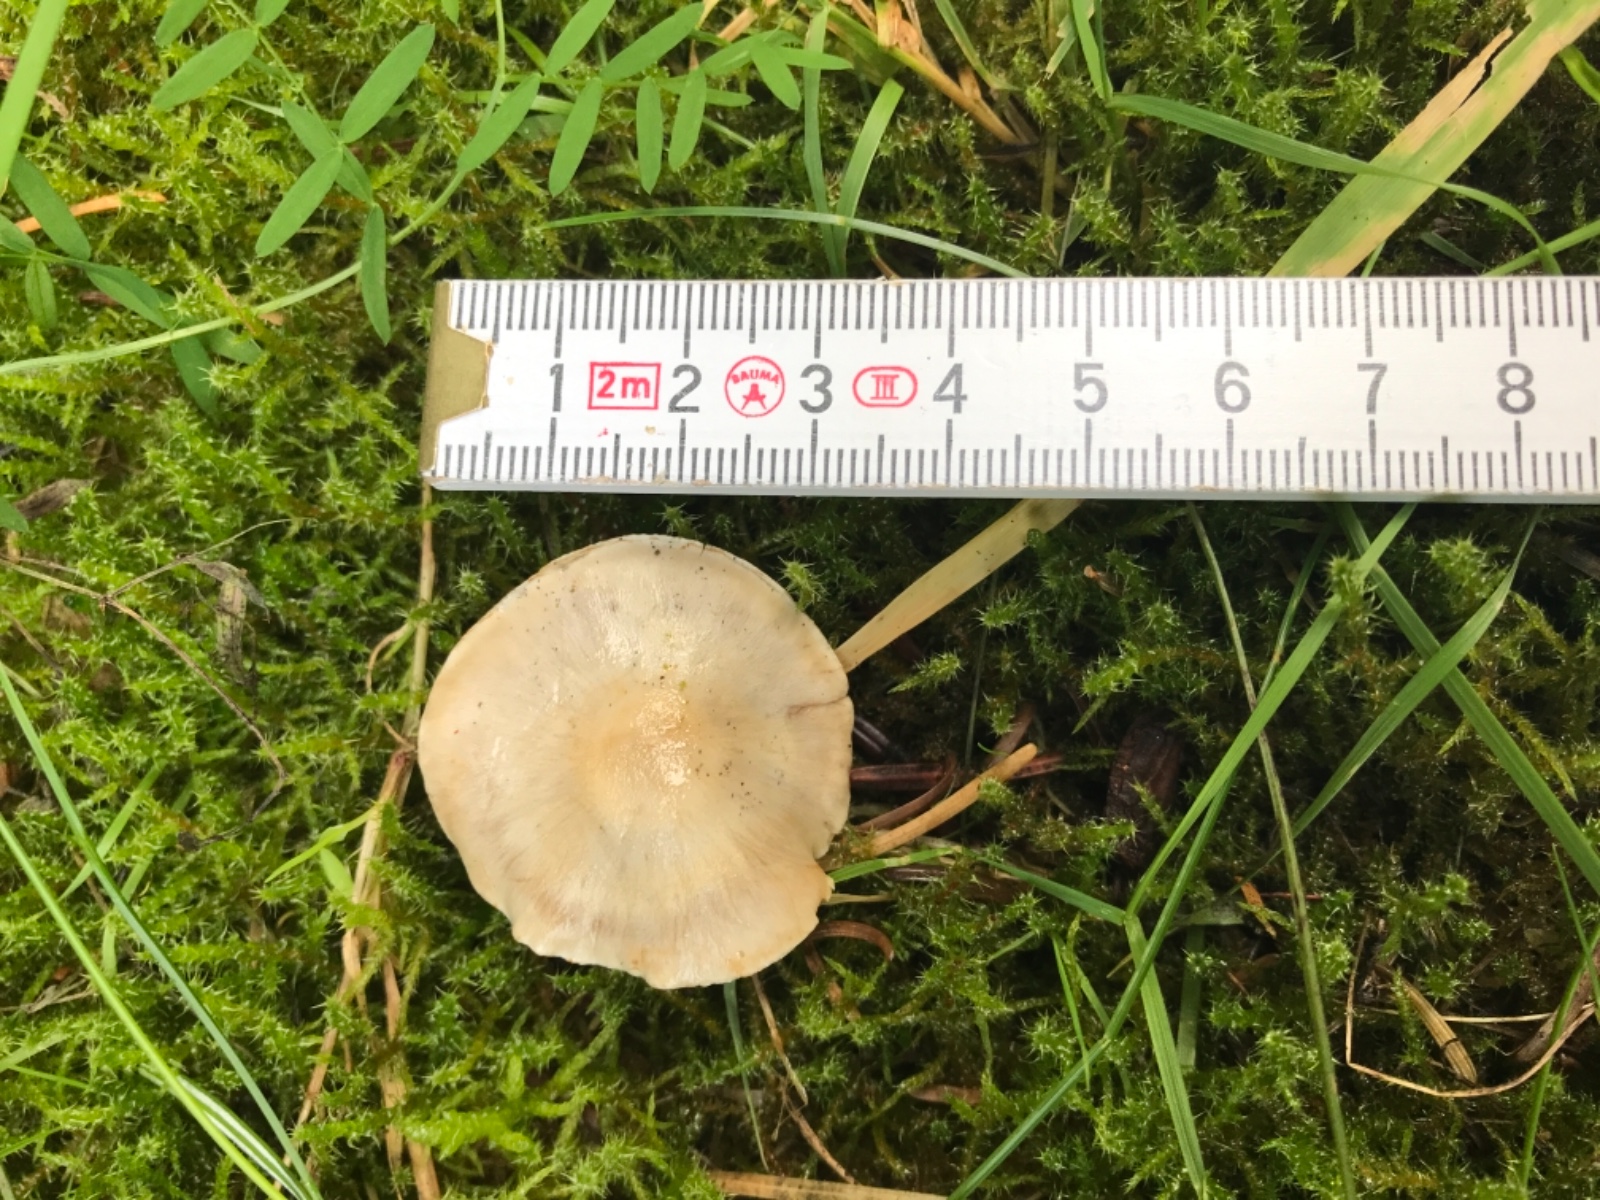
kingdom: Fungi
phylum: Basidiomycota
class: Agaricomycetes
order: Agaricales
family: Cortinariaceae
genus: Cortinarius
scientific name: Cortinarius
